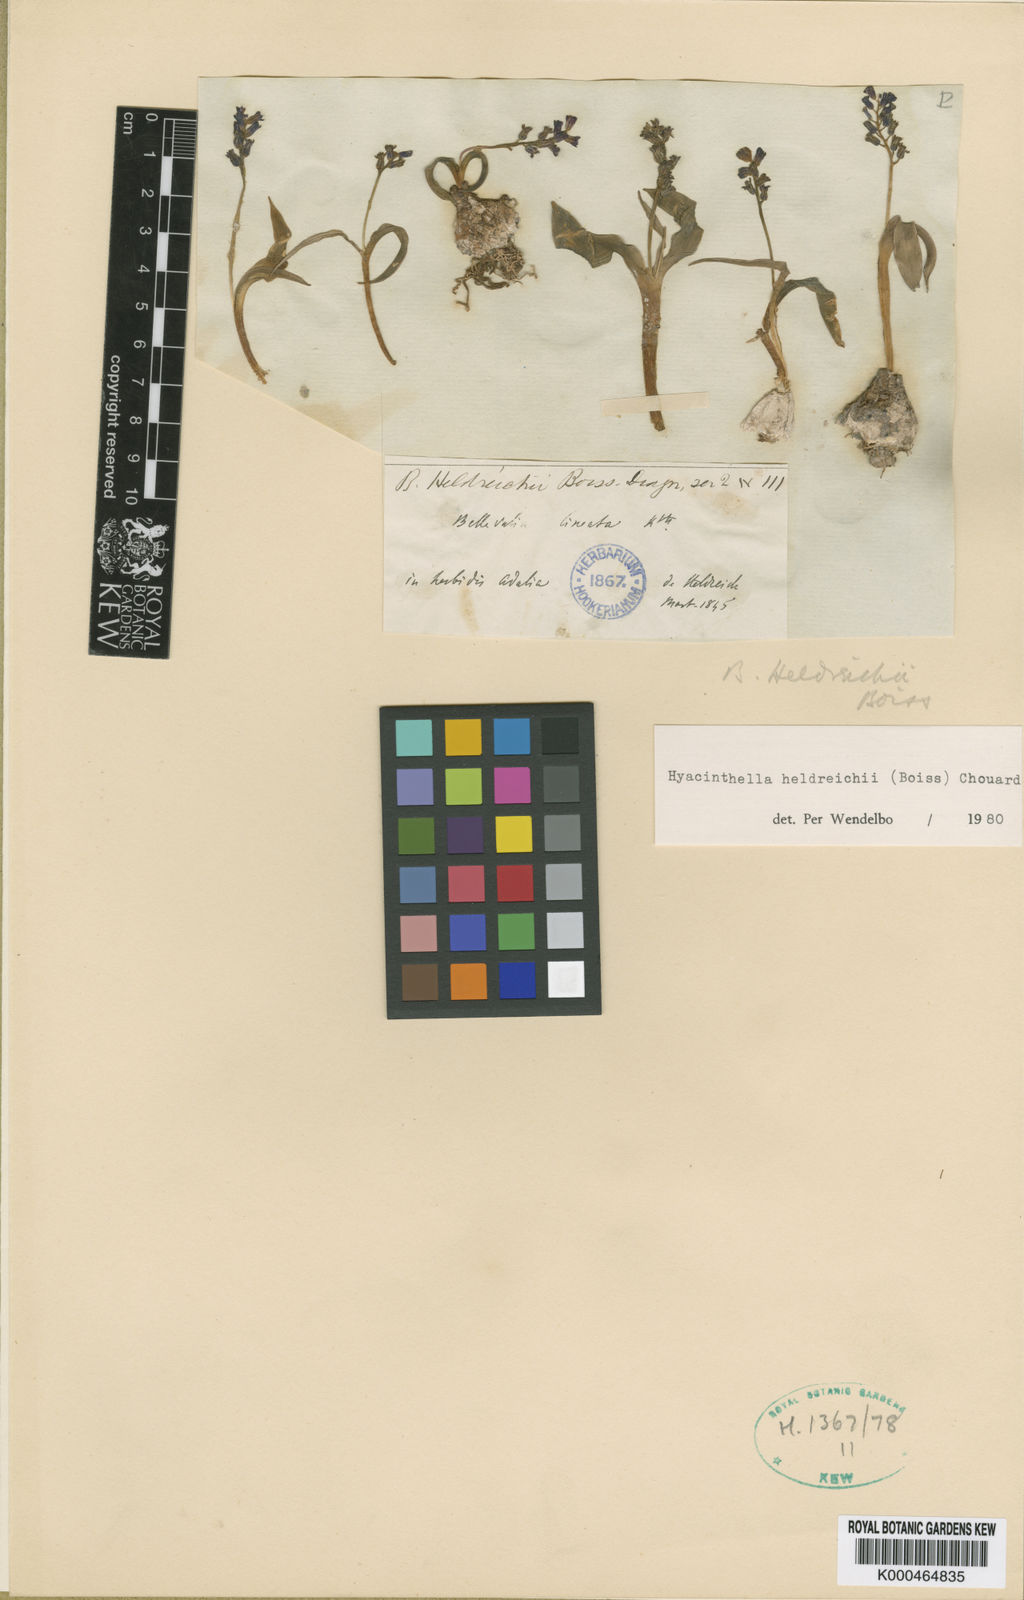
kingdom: Plantae
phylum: Tracheophyta
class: Liliopsida
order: Asparagales
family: Asparagaceae
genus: Hyacinthus
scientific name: Hyacinthus
